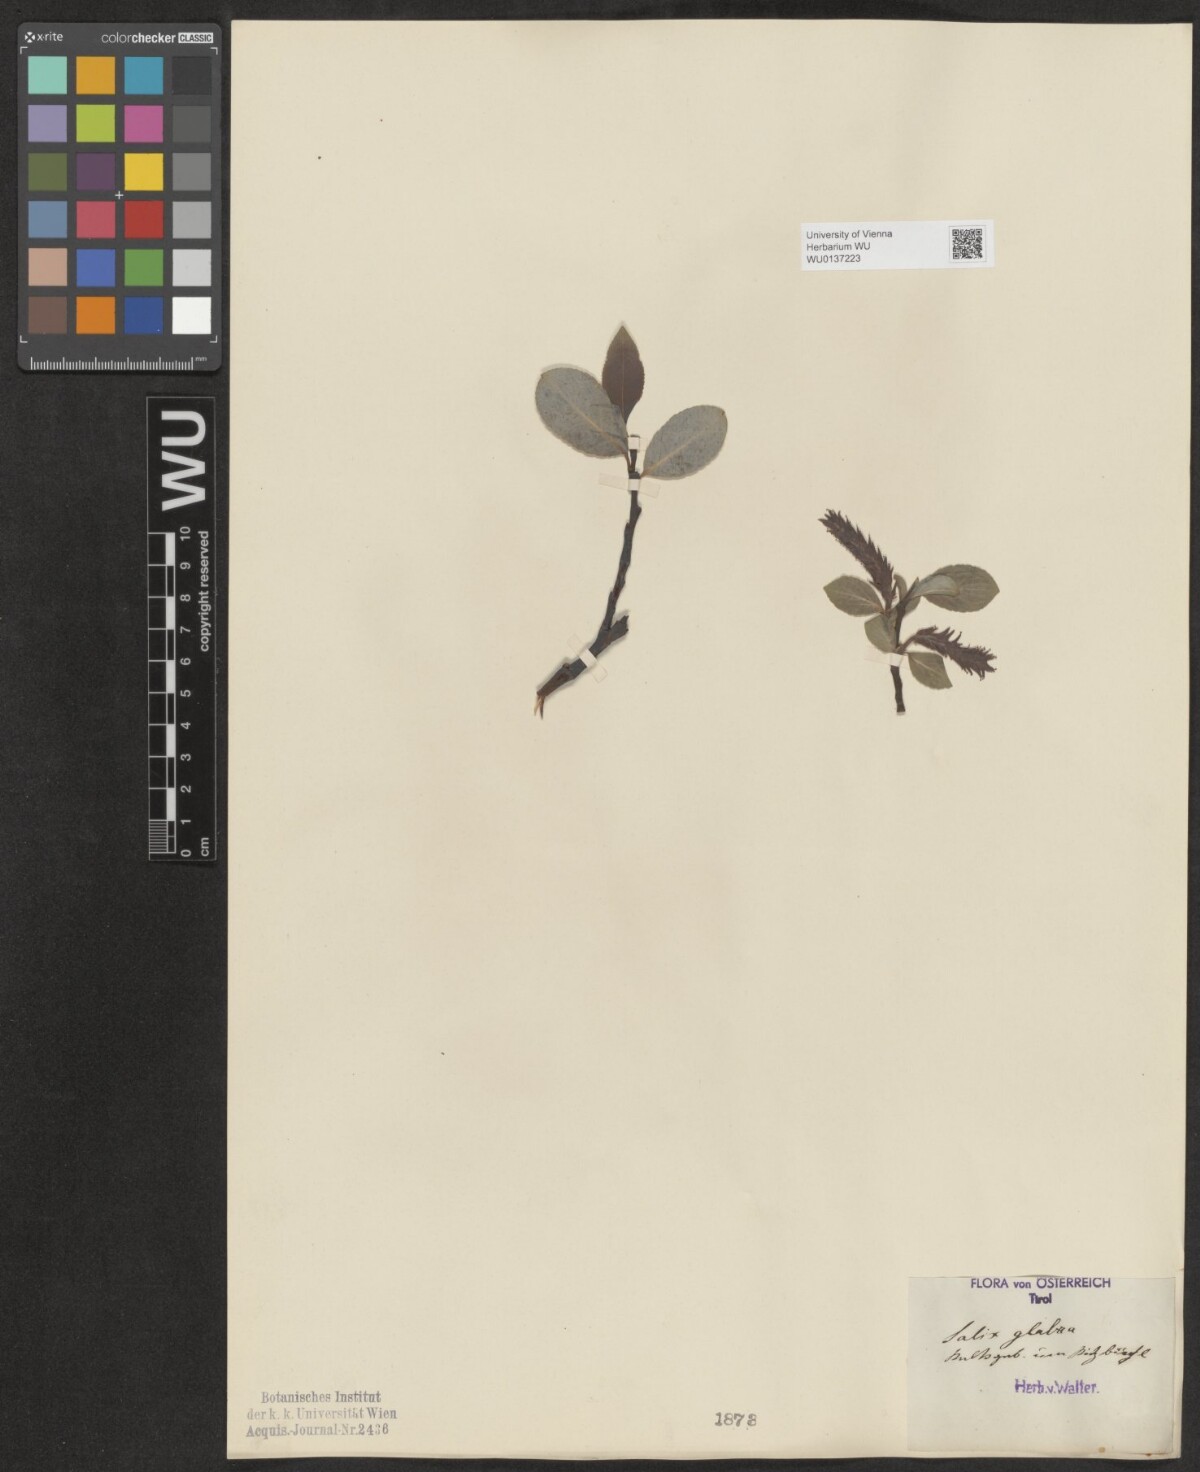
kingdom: Plantae
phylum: Tracheophyta
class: Magnoliopsida
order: Malpighiales
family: Salicaceae
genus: Salix
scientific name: Salix glabra
